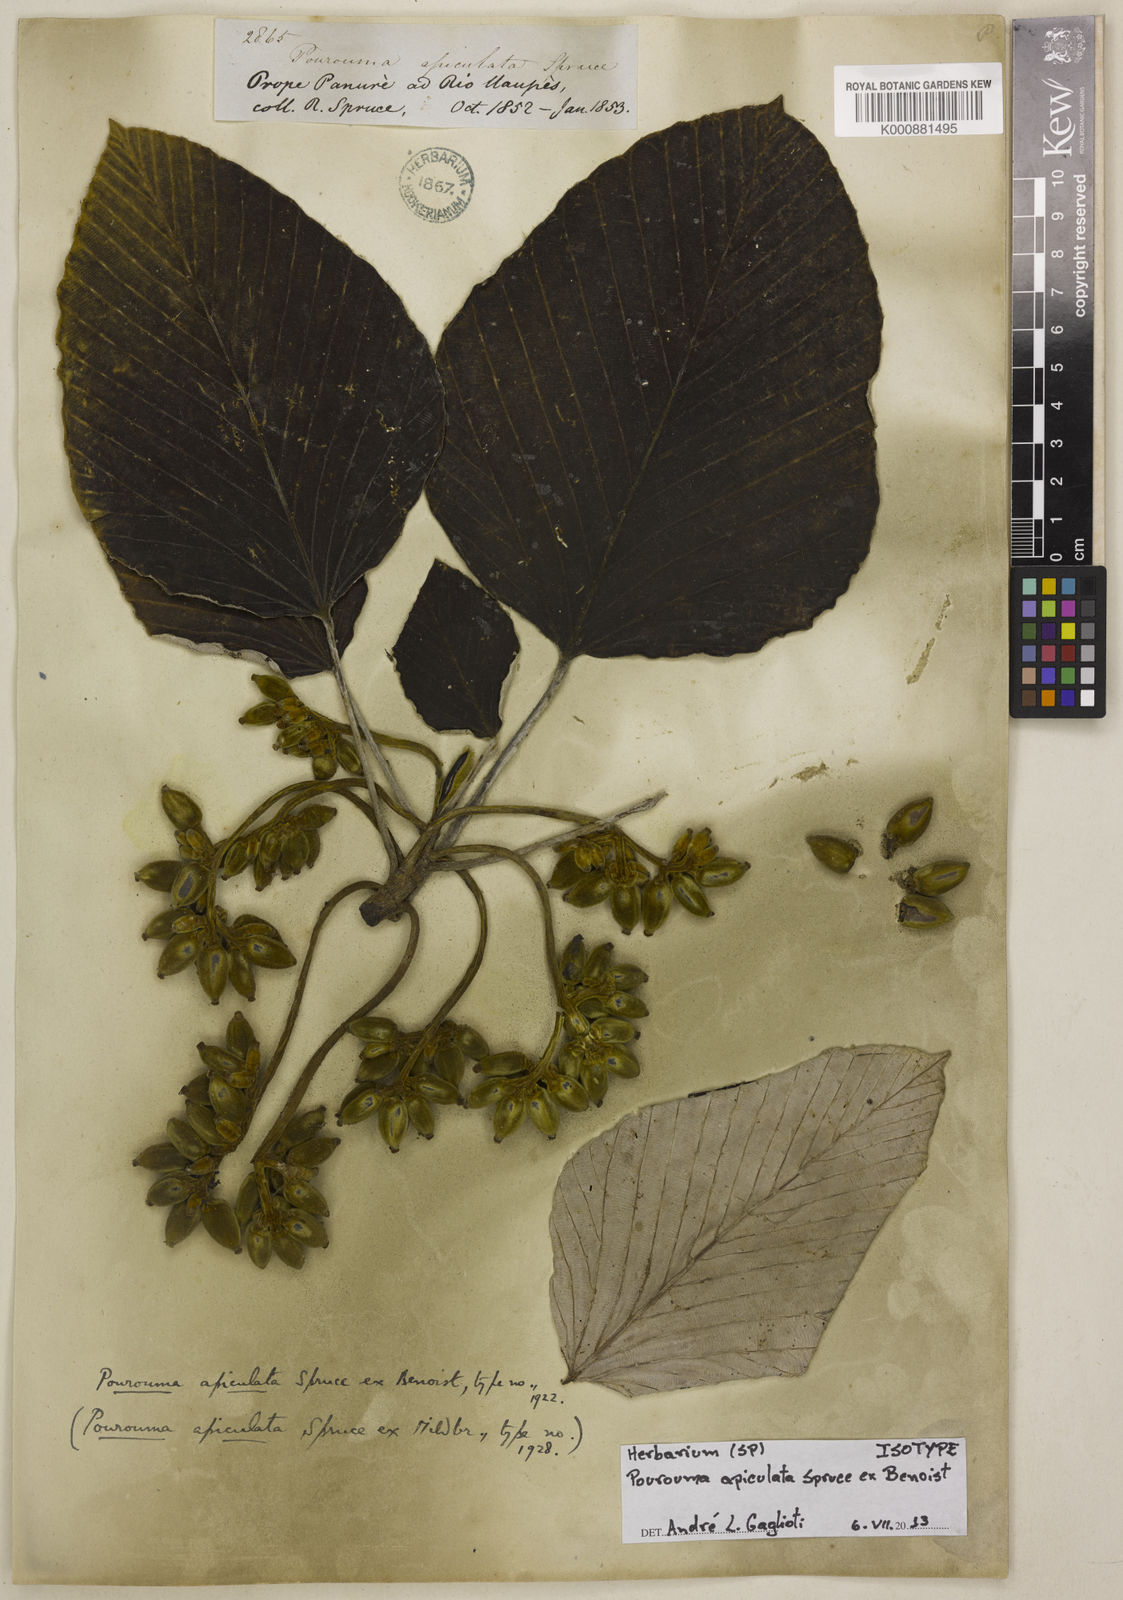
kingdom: Plantae
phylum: Tracheophyta
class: Magnoliopsida
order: Rosales
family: Urticaceae
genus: Pourouma
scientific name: Pourouma tomentosa
